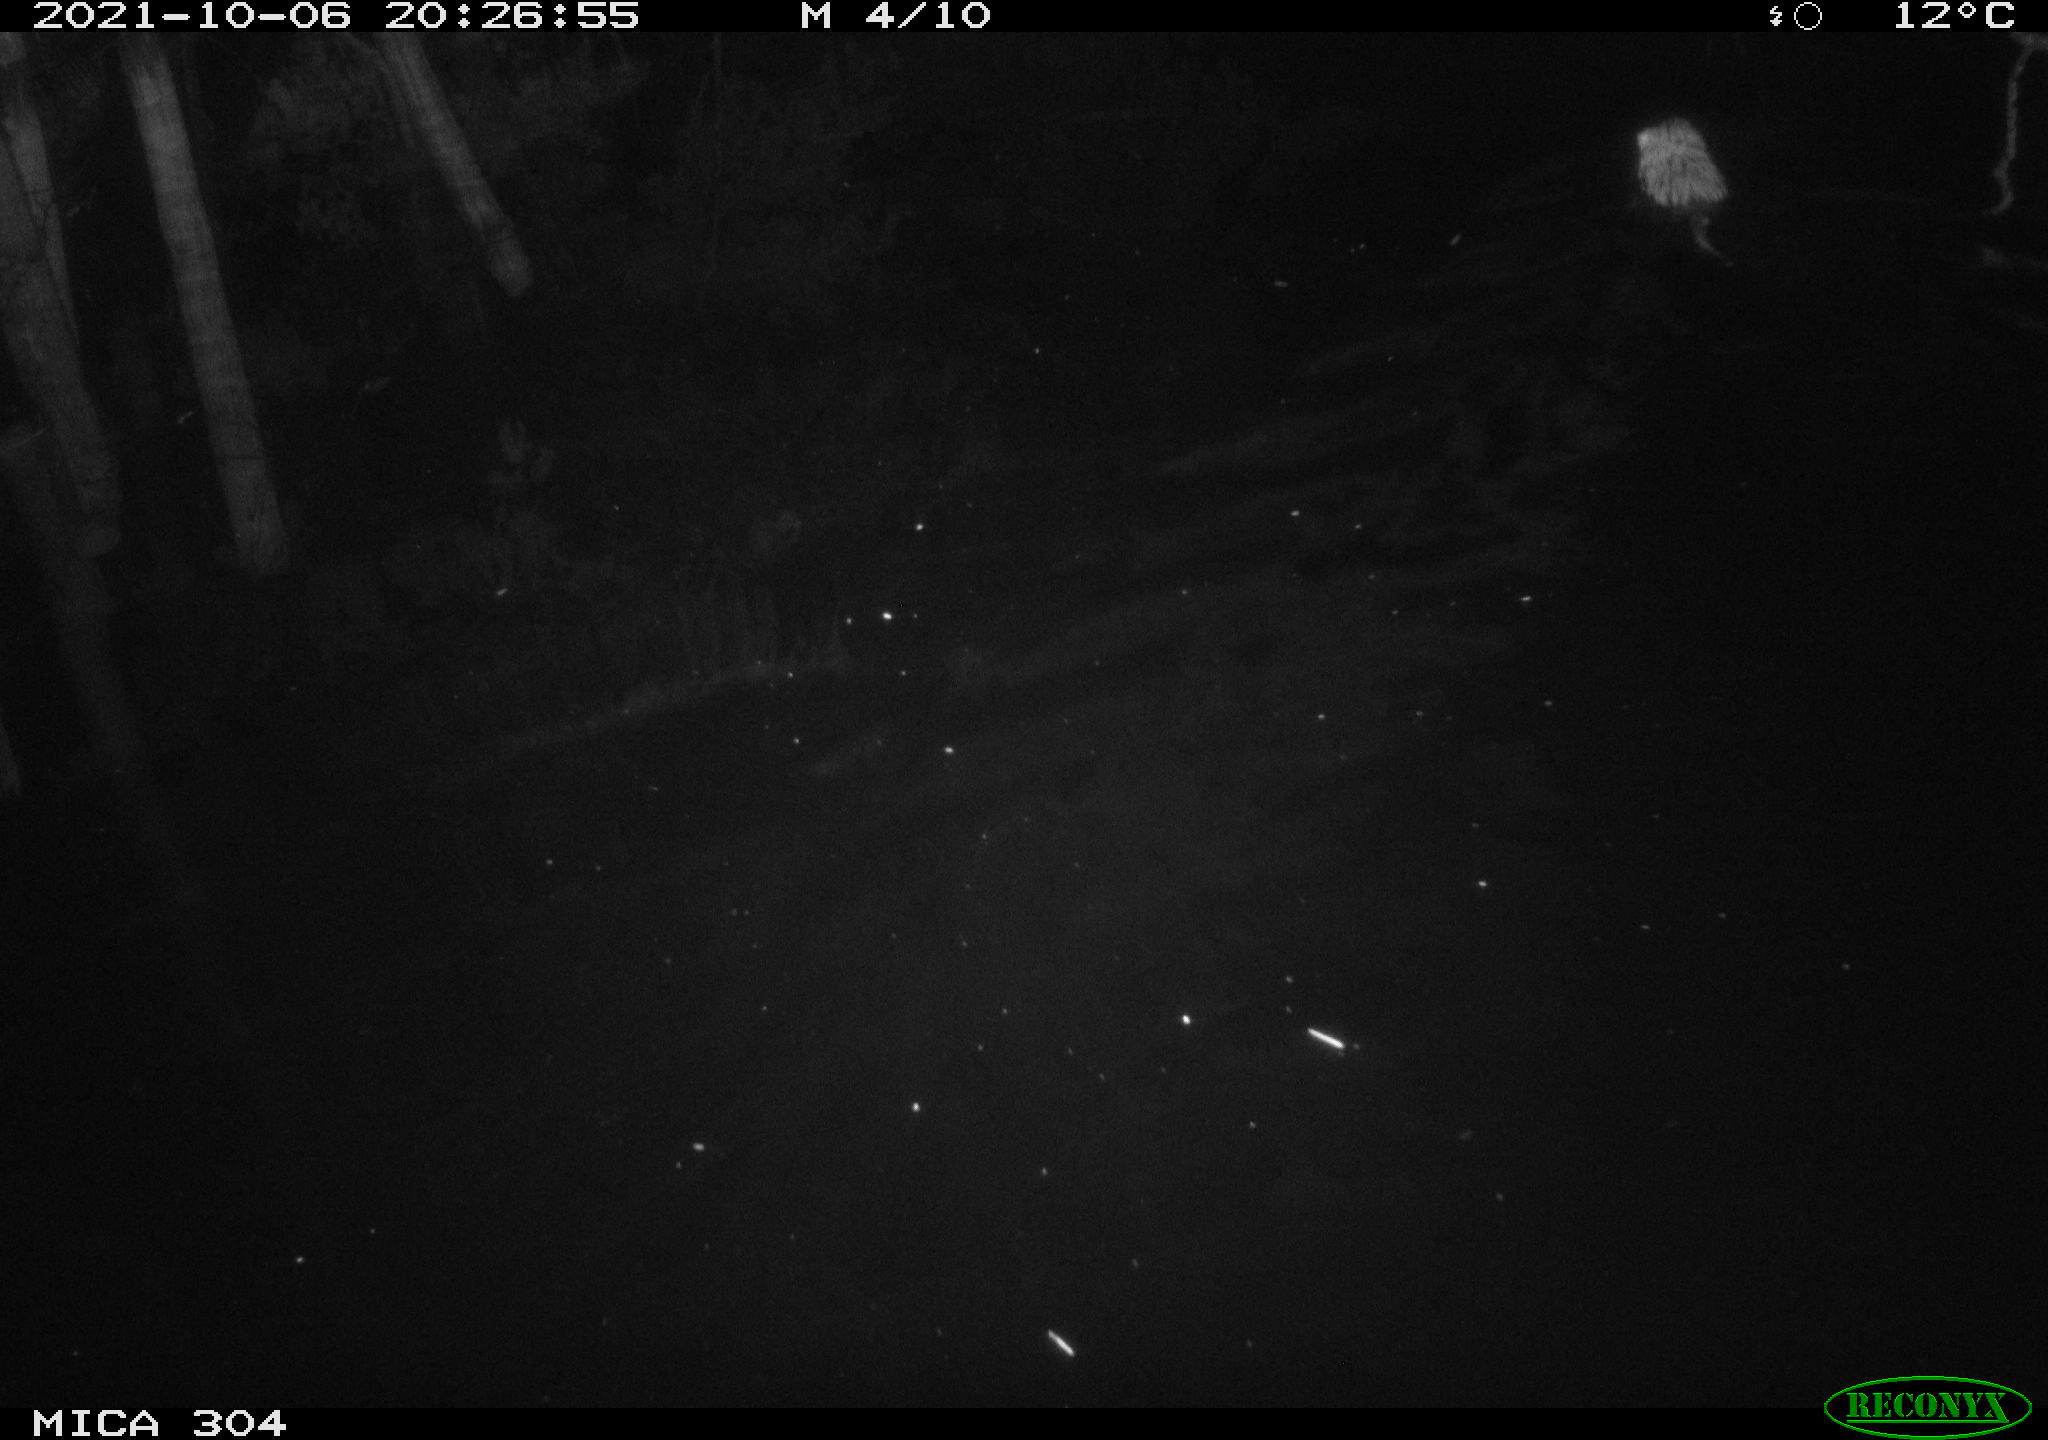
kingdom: Animalia
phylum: Chordata
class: Mammalia
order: Rodentia
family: Cricetidae
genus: Ondatra
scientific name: Ondatra zibethicus
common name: Muskrat
